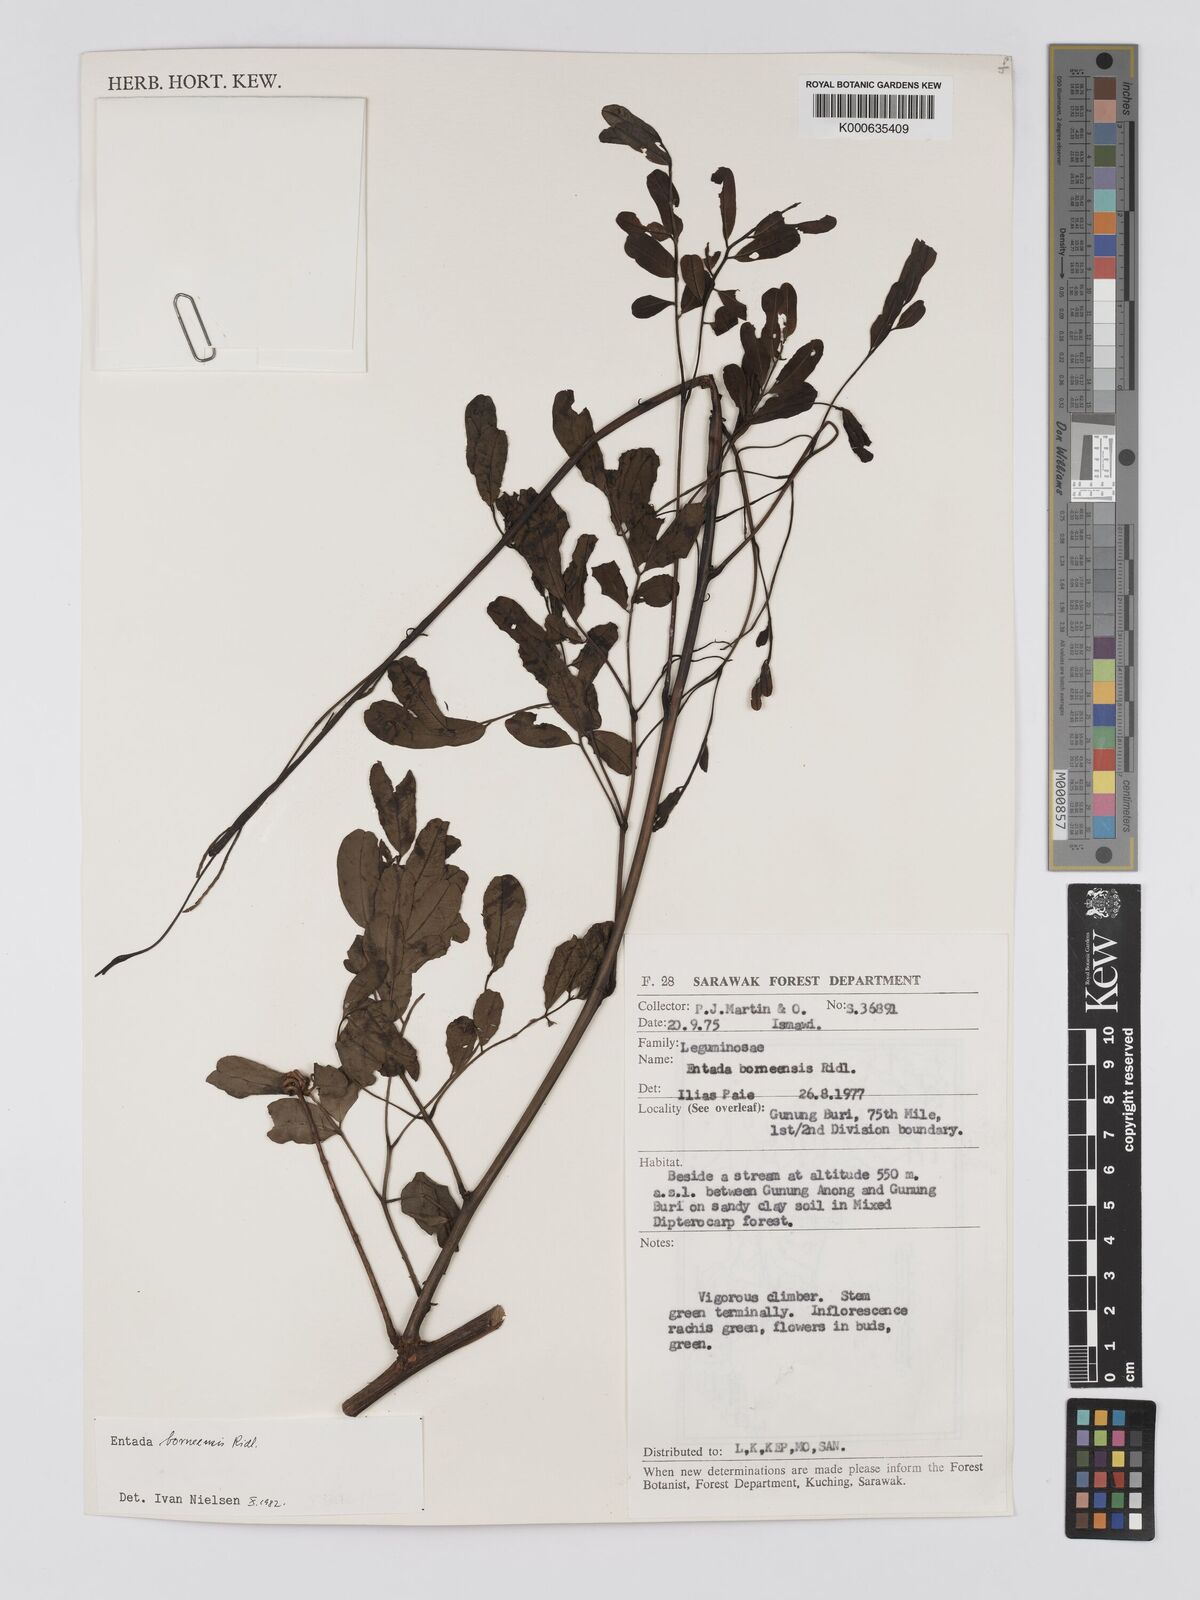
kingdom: Plantae
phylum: Tracheophyta
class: Magnoliopsida
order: Fabales
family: Fabaceae
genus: Entada
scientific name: Entada borneensis
